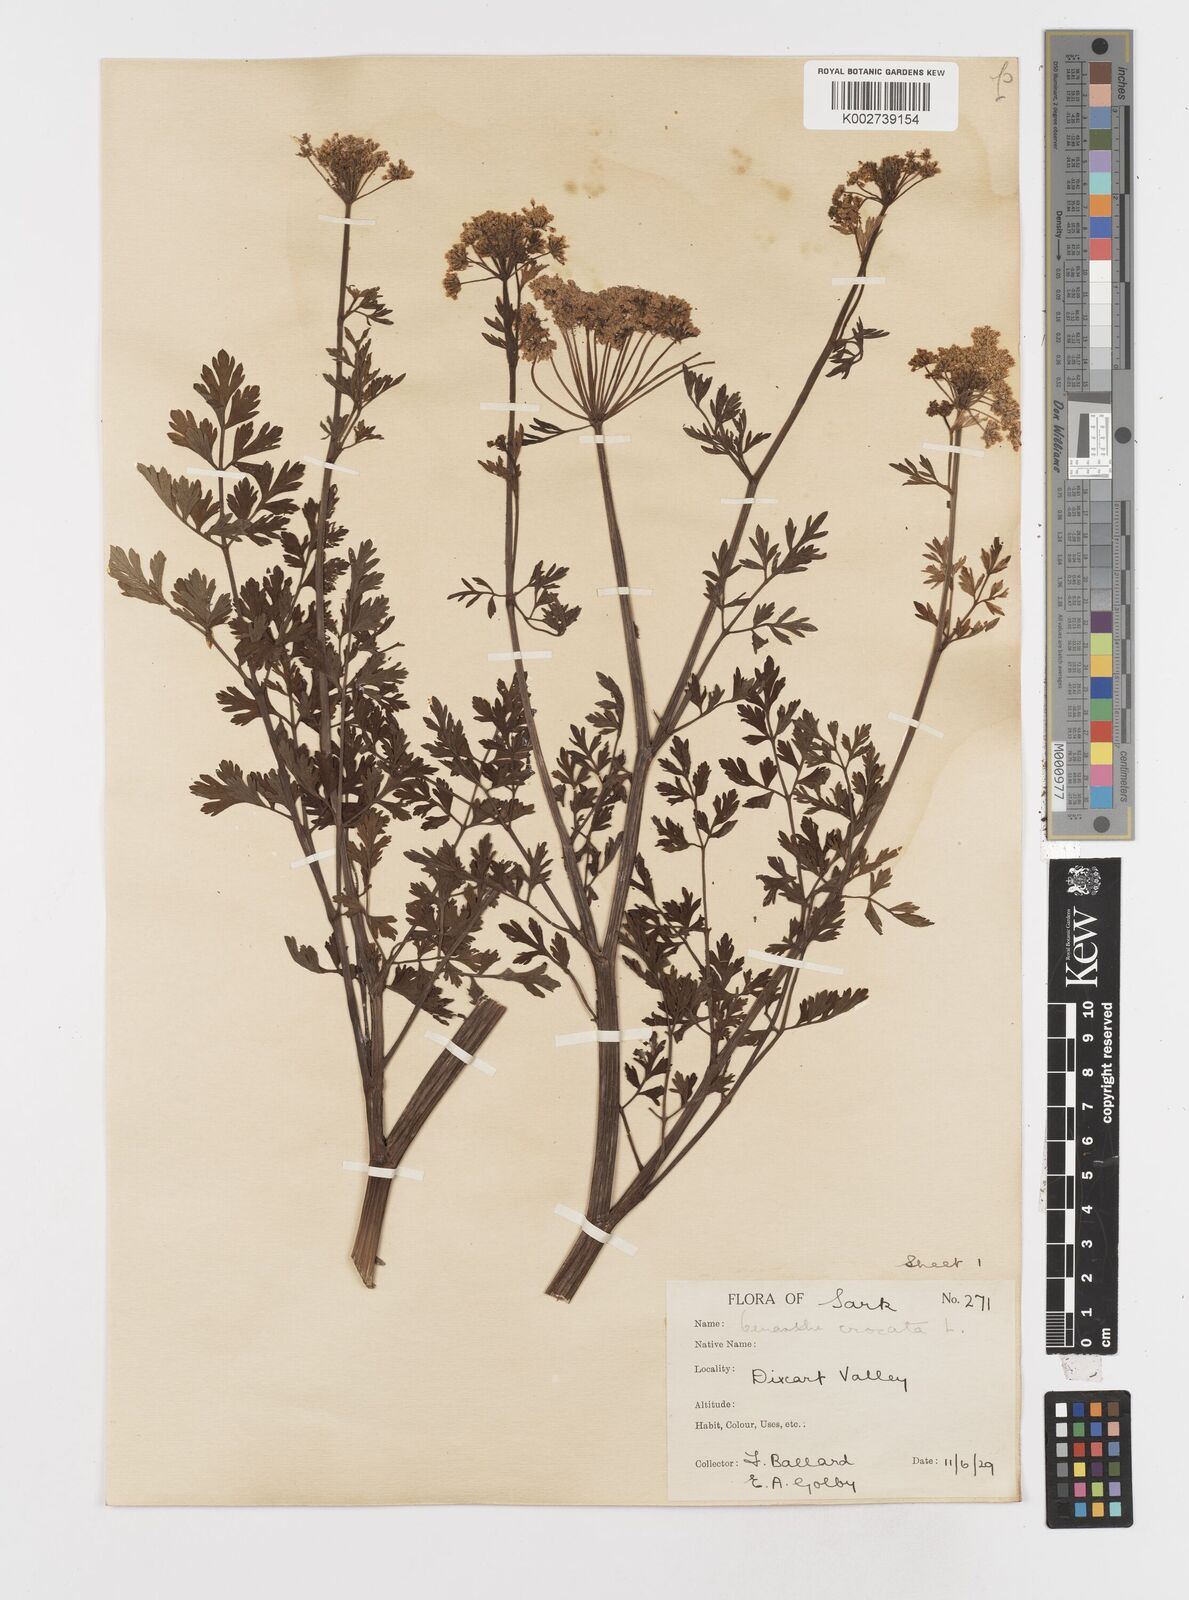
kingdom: Plantae
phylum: Tracheophyta
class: Magnoliopsida
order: Apiales
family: Apiaceae
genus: Oenanthe
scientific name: Oenanthe crocata
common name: Hemlock water-dropwort
